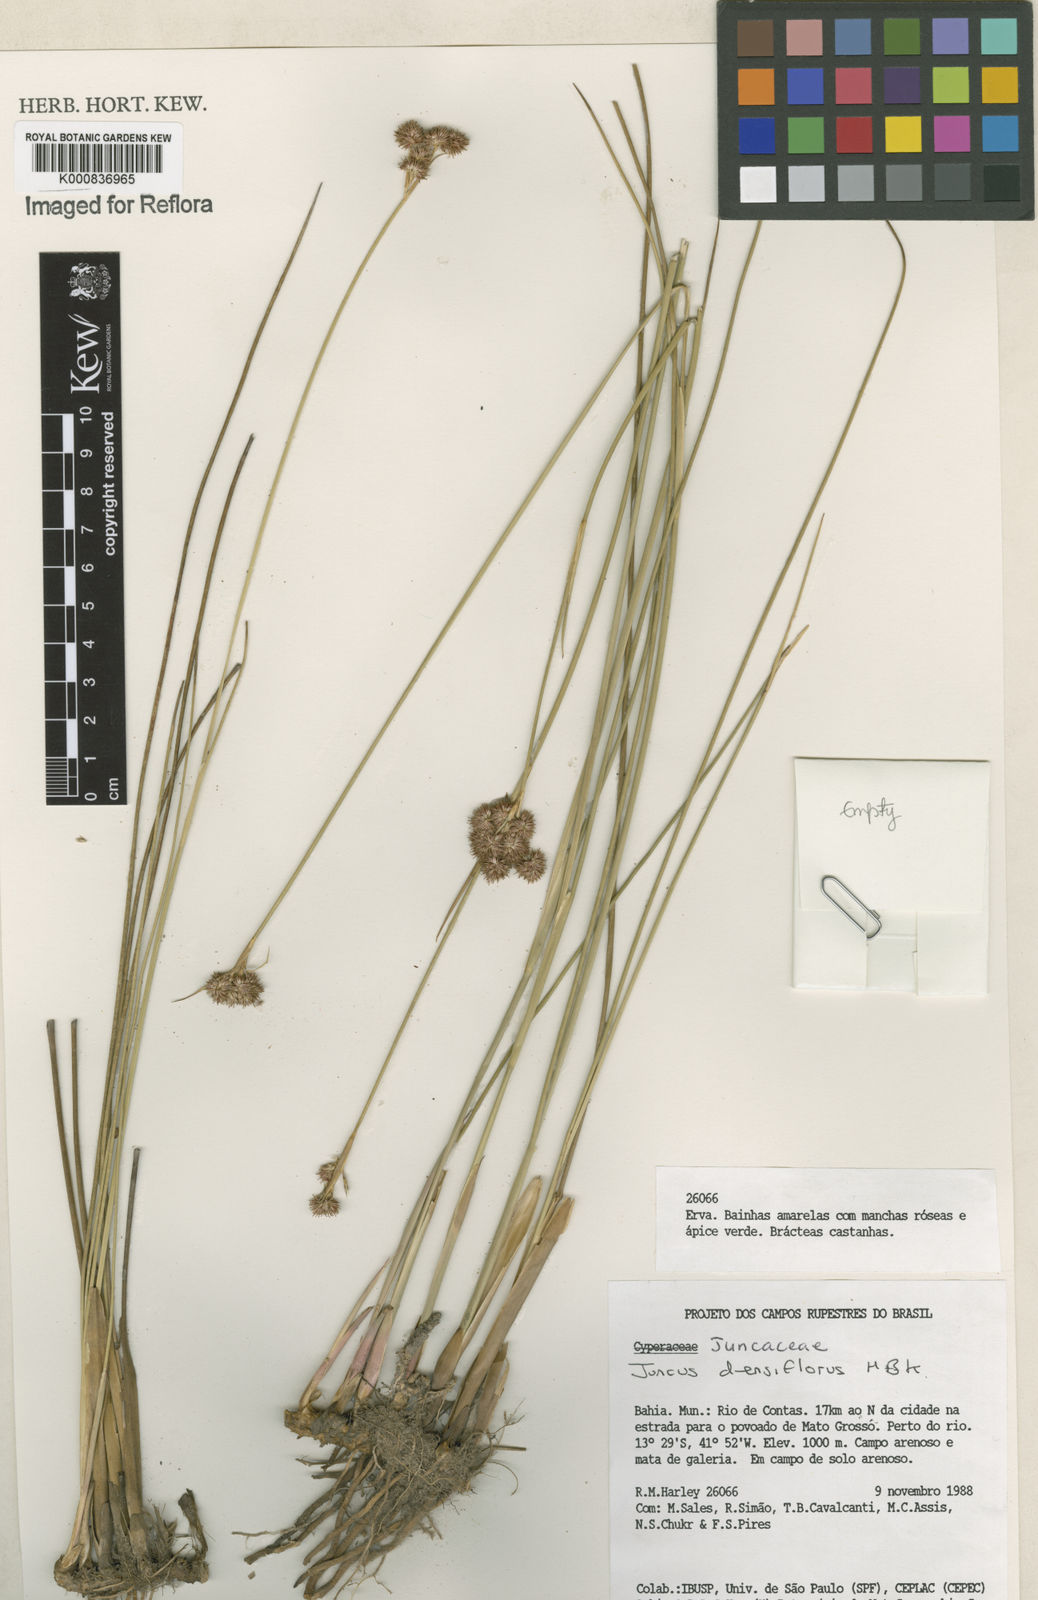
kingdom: Plantae
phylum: Tracheophyta
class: Liliopsida
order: Poales
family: Juncaceae
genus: Juncus
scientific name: Juncus densiflorus
